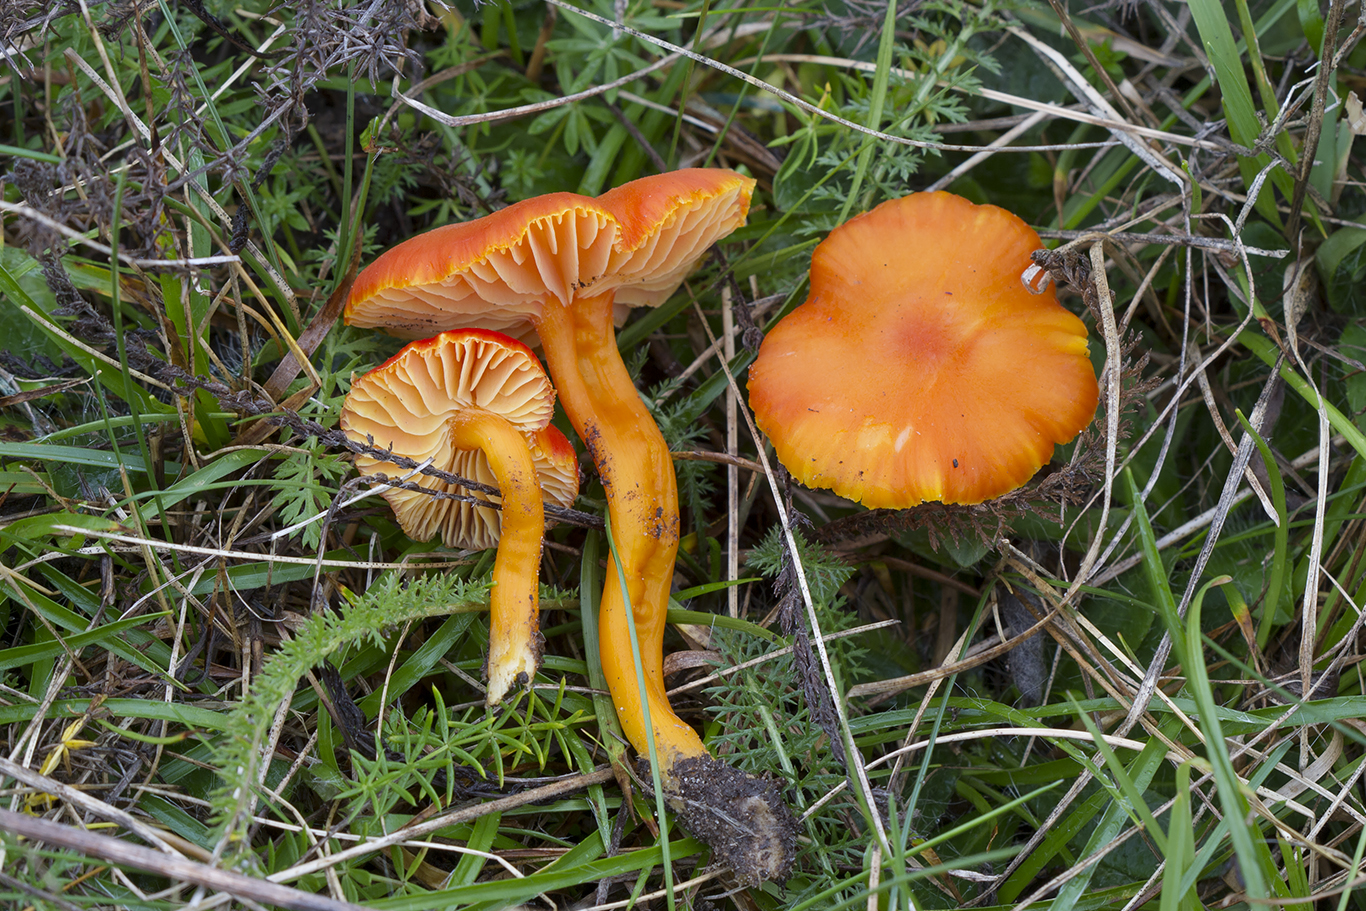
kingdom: Fungi
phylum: Basidiomycota
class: Agaricomycetes
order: Agaricales
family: Hygrophoraceae
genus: Hygrocybe
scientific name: Hygrocybe miniata
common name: mønje-vokshat
